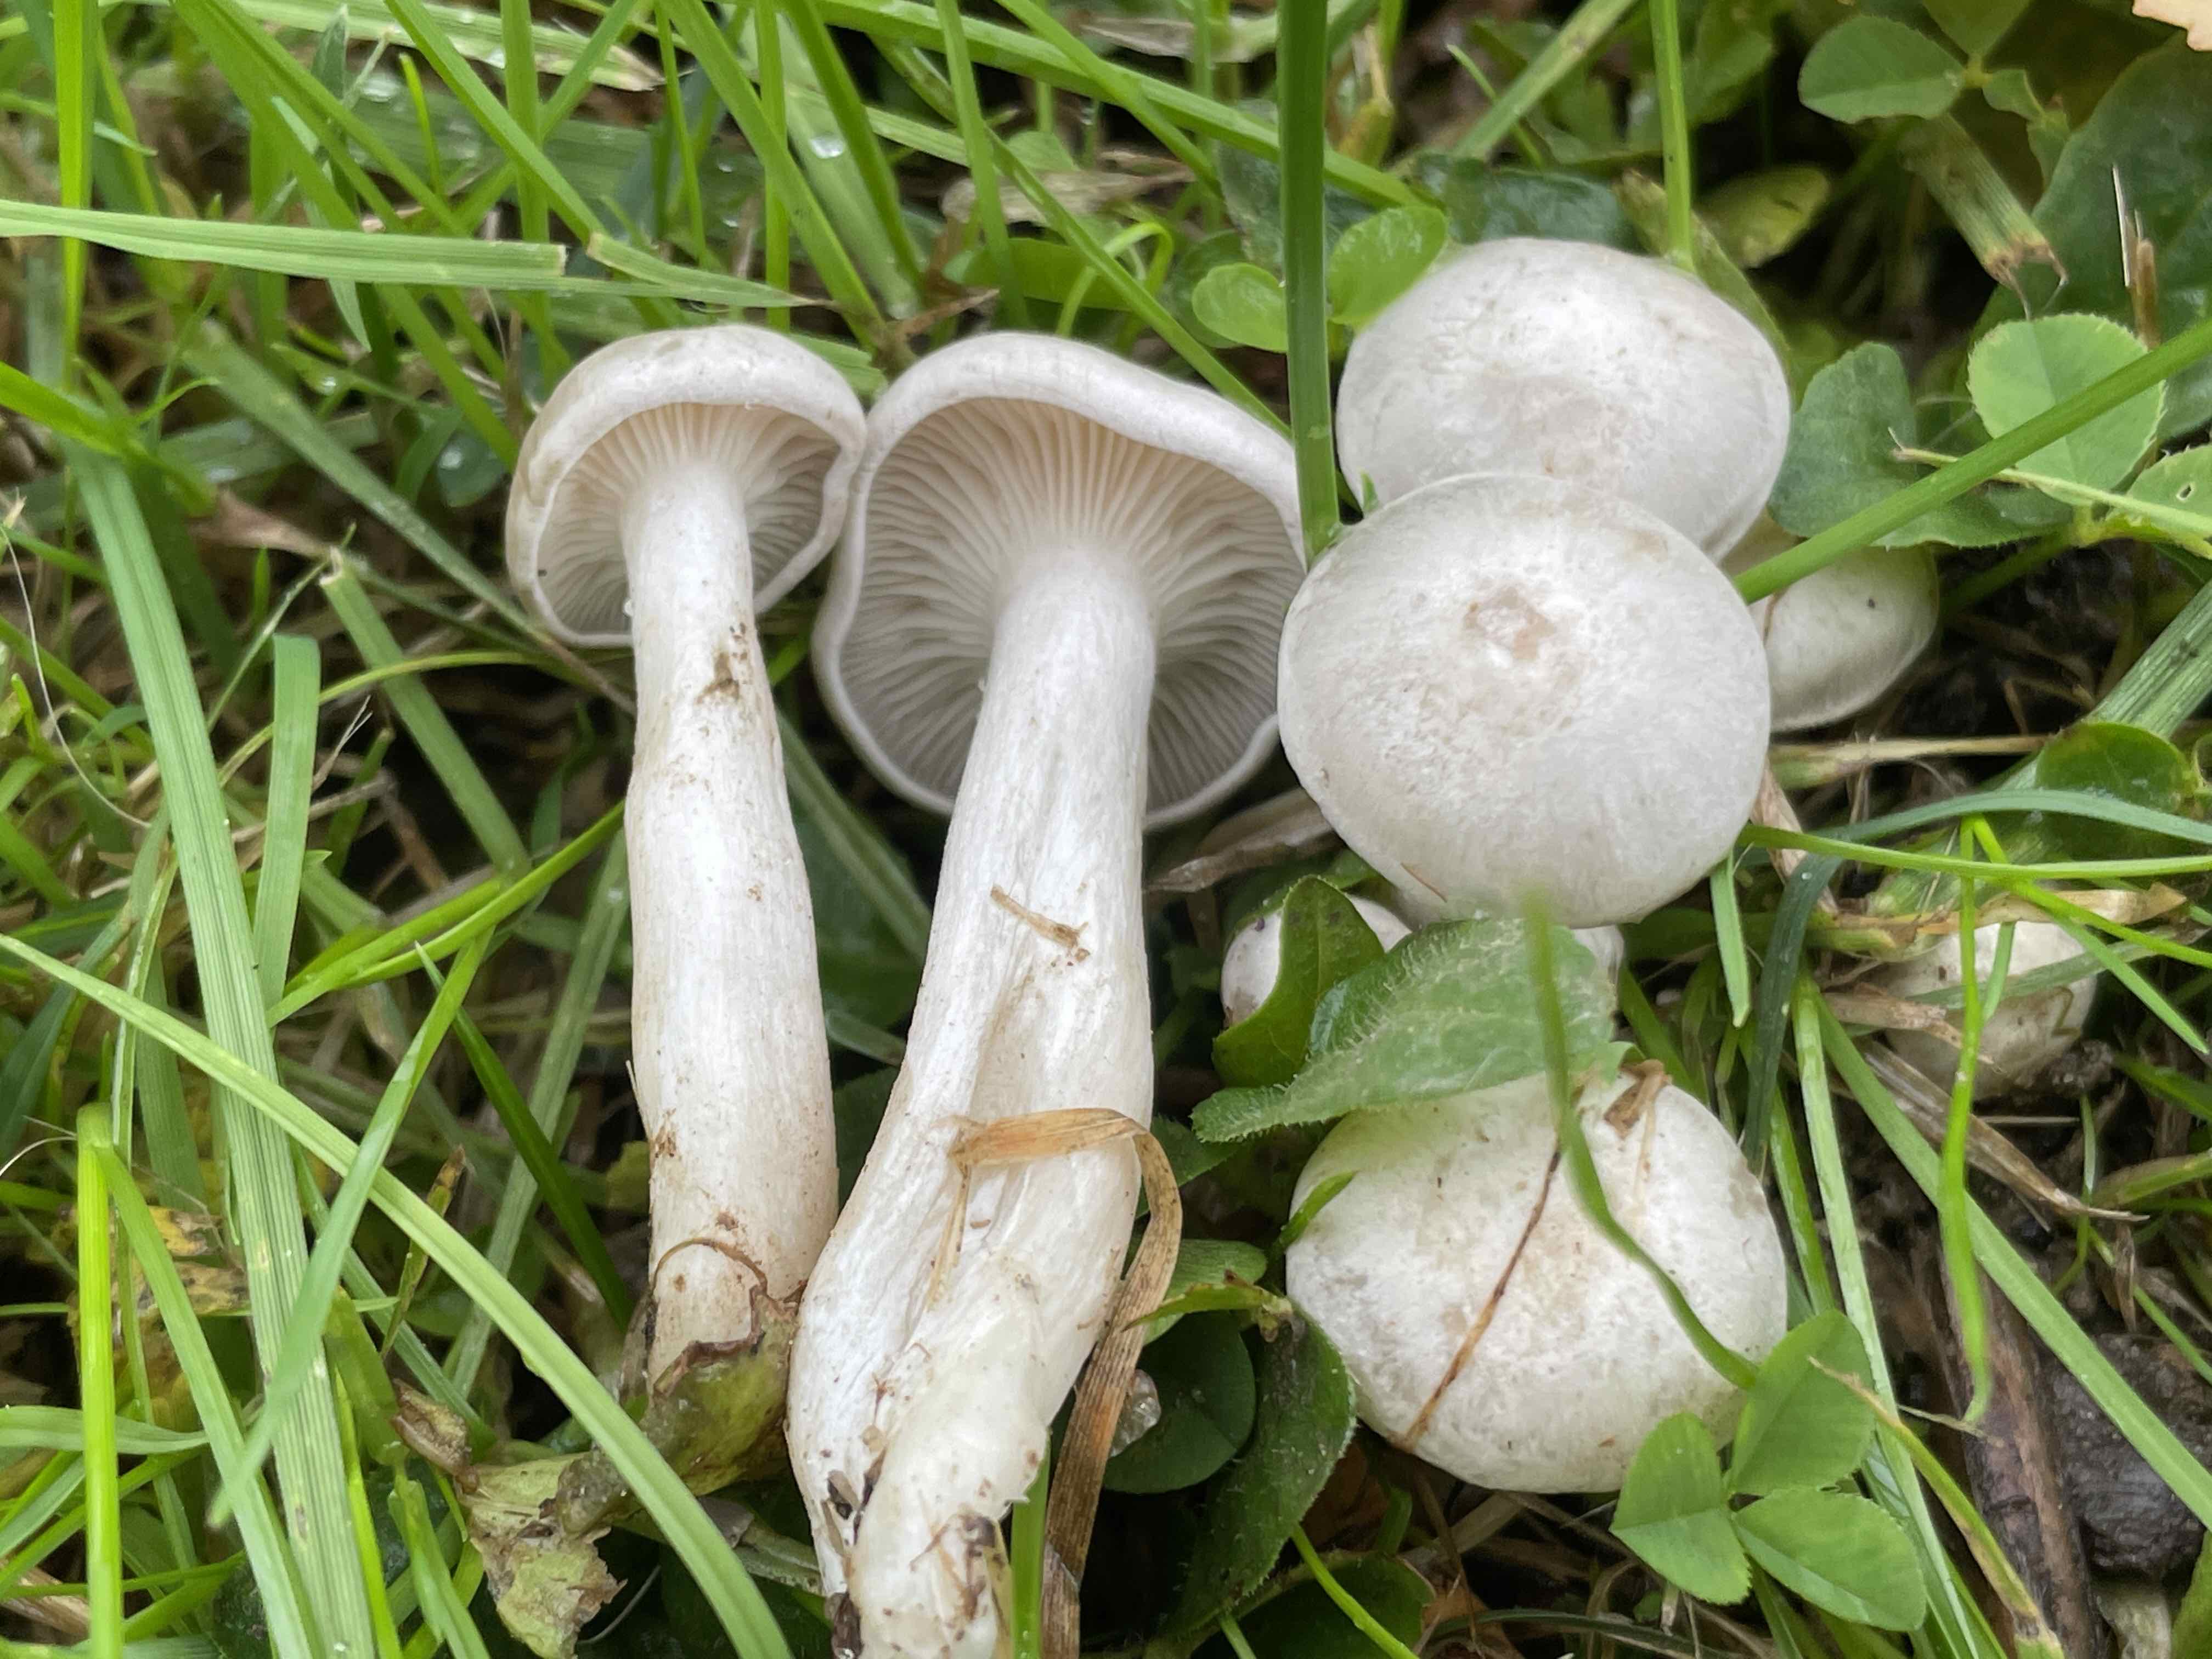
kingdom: Fungi
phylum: Basidiomycota
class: Agaricomycetes
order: Agaricales
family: Tricholomataceae
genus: Leucocybe
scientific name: Leucocybe connata
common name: knippe-tragthat
